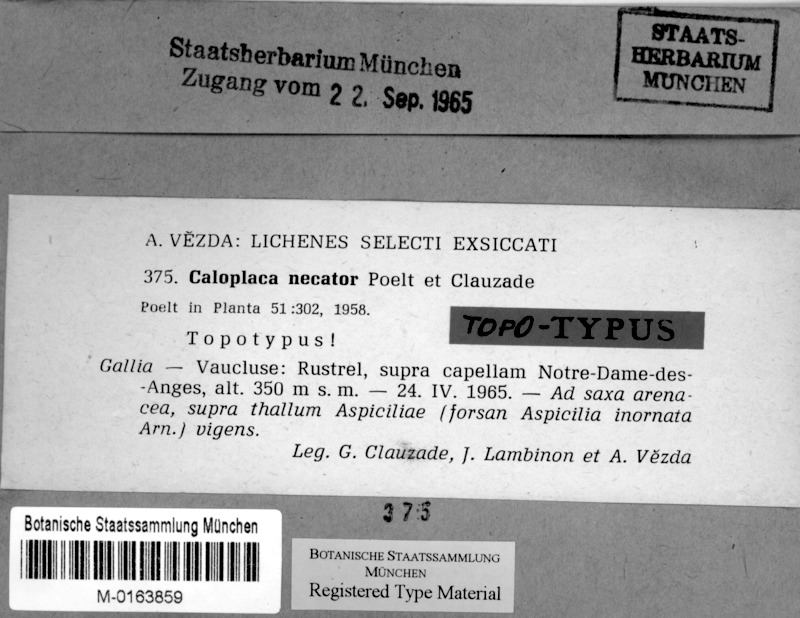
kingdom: Fungi
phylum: Ascomycota
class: Lecanoromycetes
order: Teloschistales
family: Teloschistaceae
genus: Caloplaca
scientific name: Caloplaca necator
